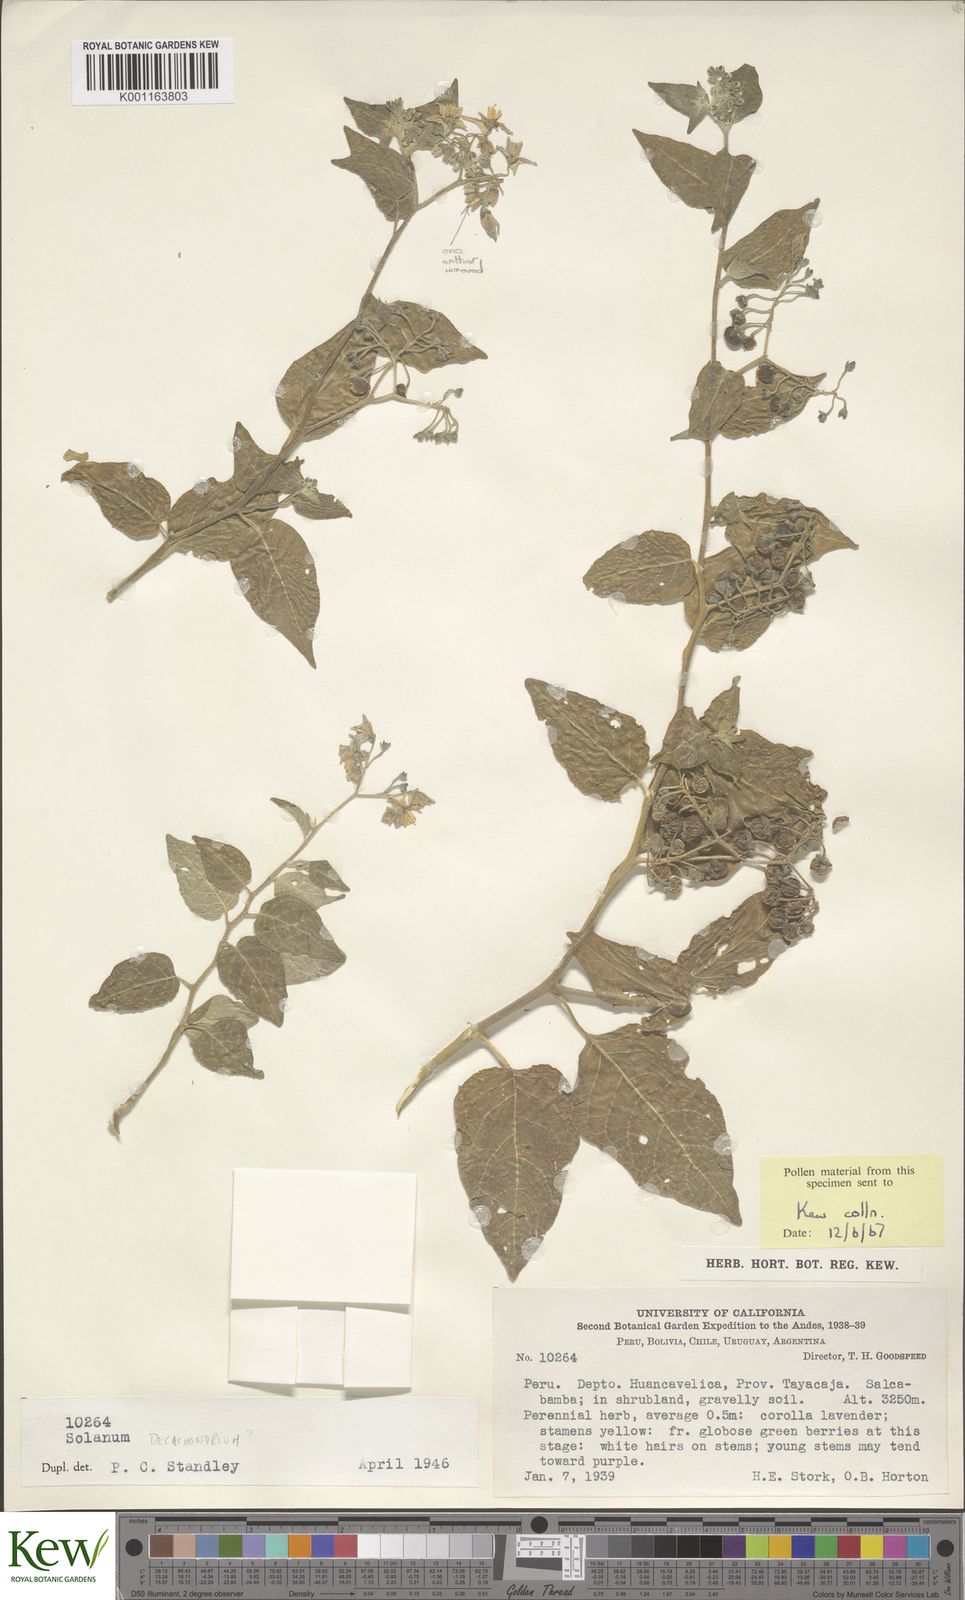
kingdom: Plantae
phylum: Tracheophyta
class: Magnoliopsida
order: Solanales
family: Solanaceae
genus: Solanum
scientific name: Solanum cochabambense
